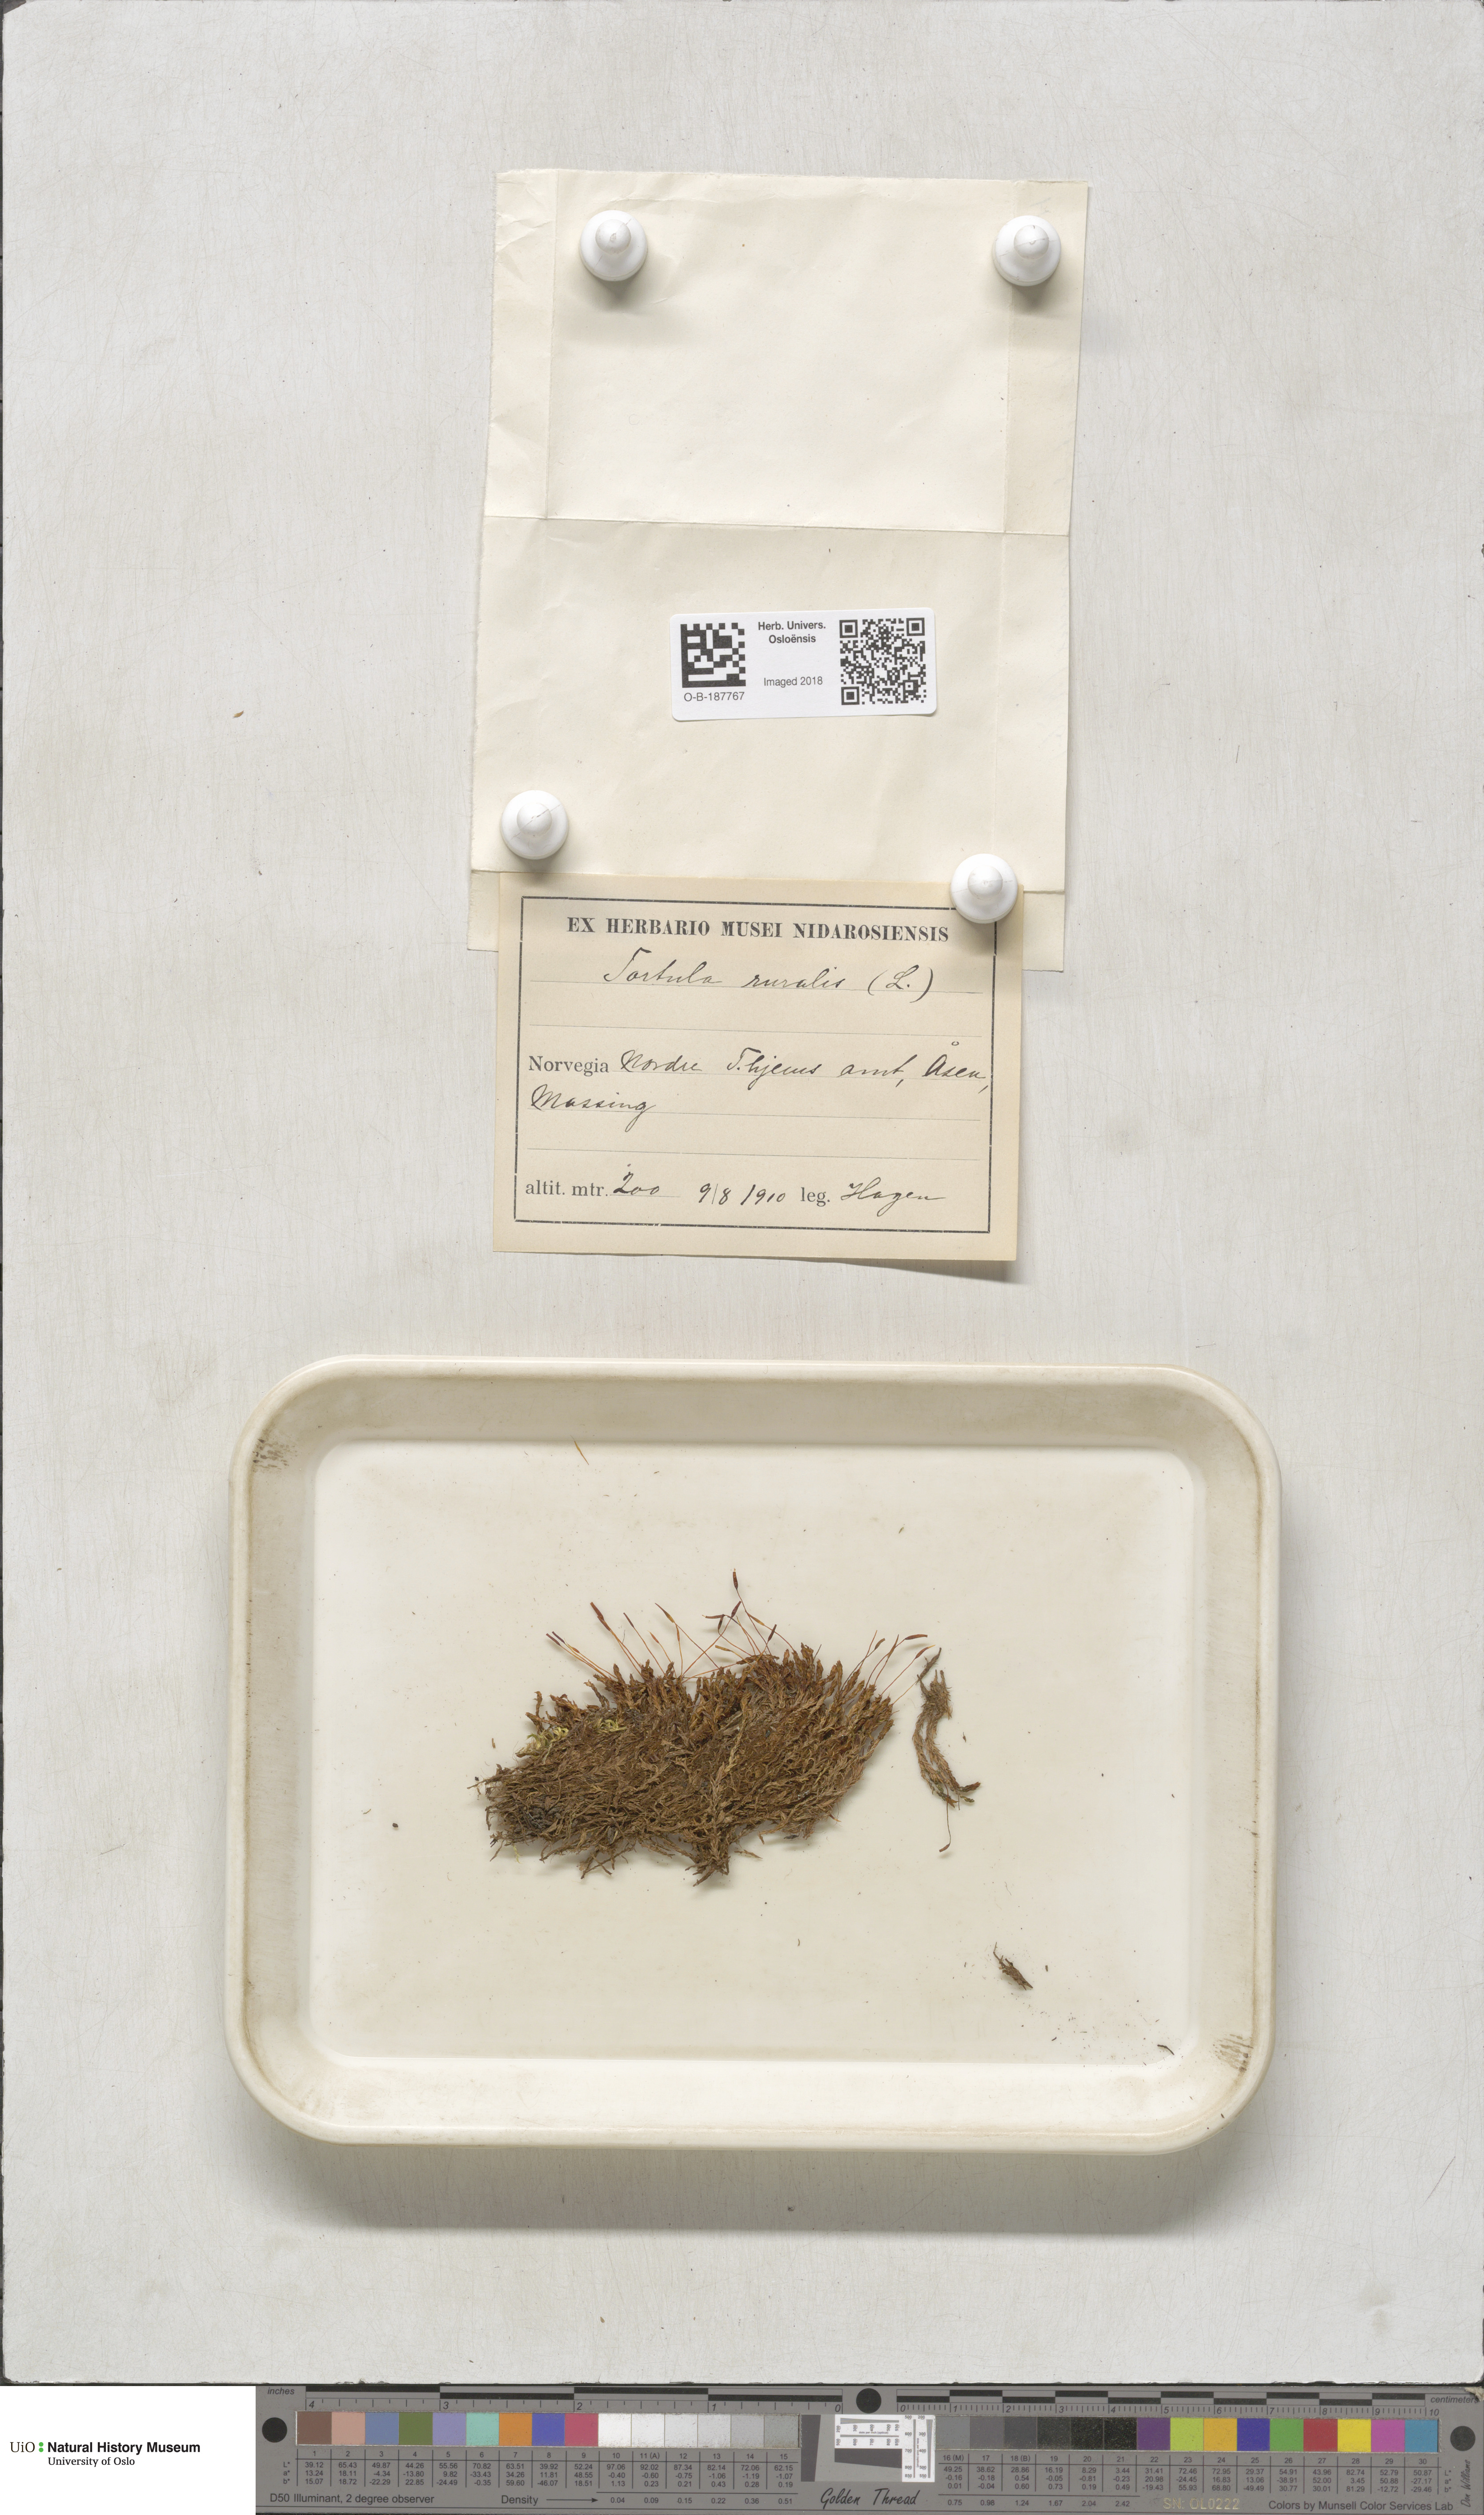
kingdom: Plantae
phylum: Bryophyta
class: Bryopsida
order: Pottiales
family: Pottiaceae
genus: Syntrichia
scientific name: Syntrichia ruralis
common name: Sidewalk screw moss
